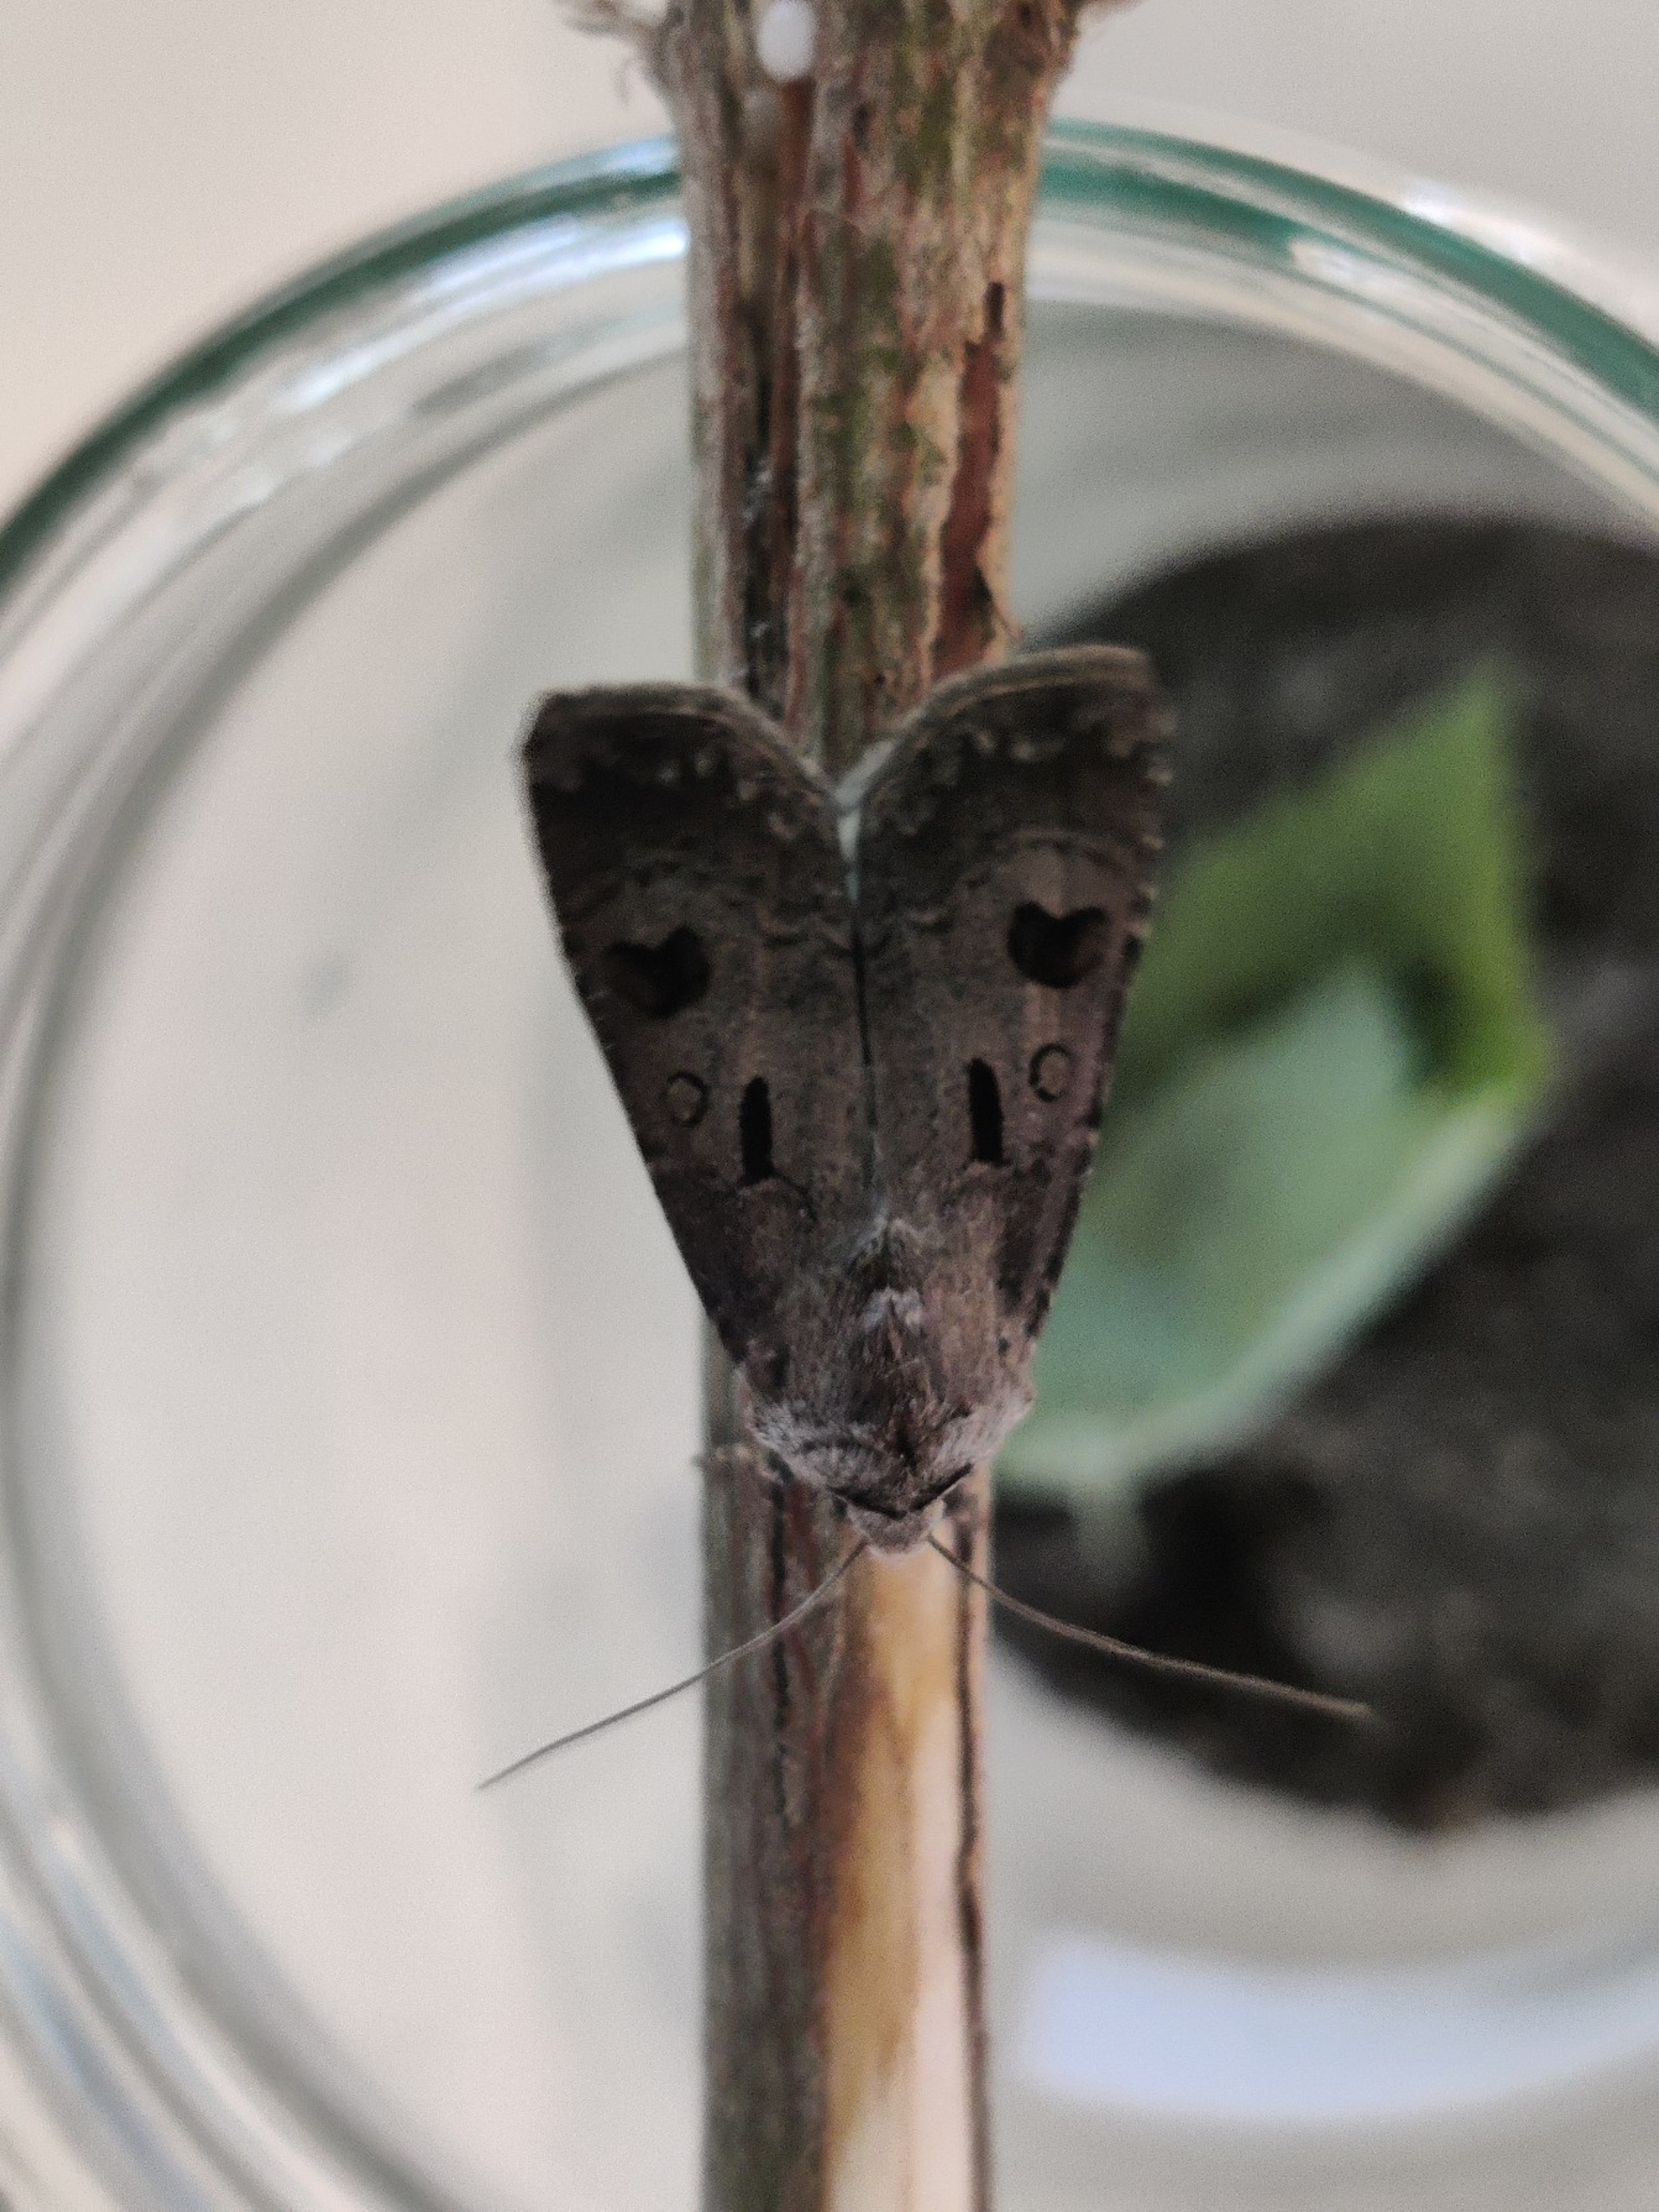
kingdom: Animalia
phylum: Arthropoda
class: Insecta
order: Lepidoptera
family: Noctuidae
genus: Agrotis
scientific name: Agrotis exclamationis
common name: Udråbstegnsugle
